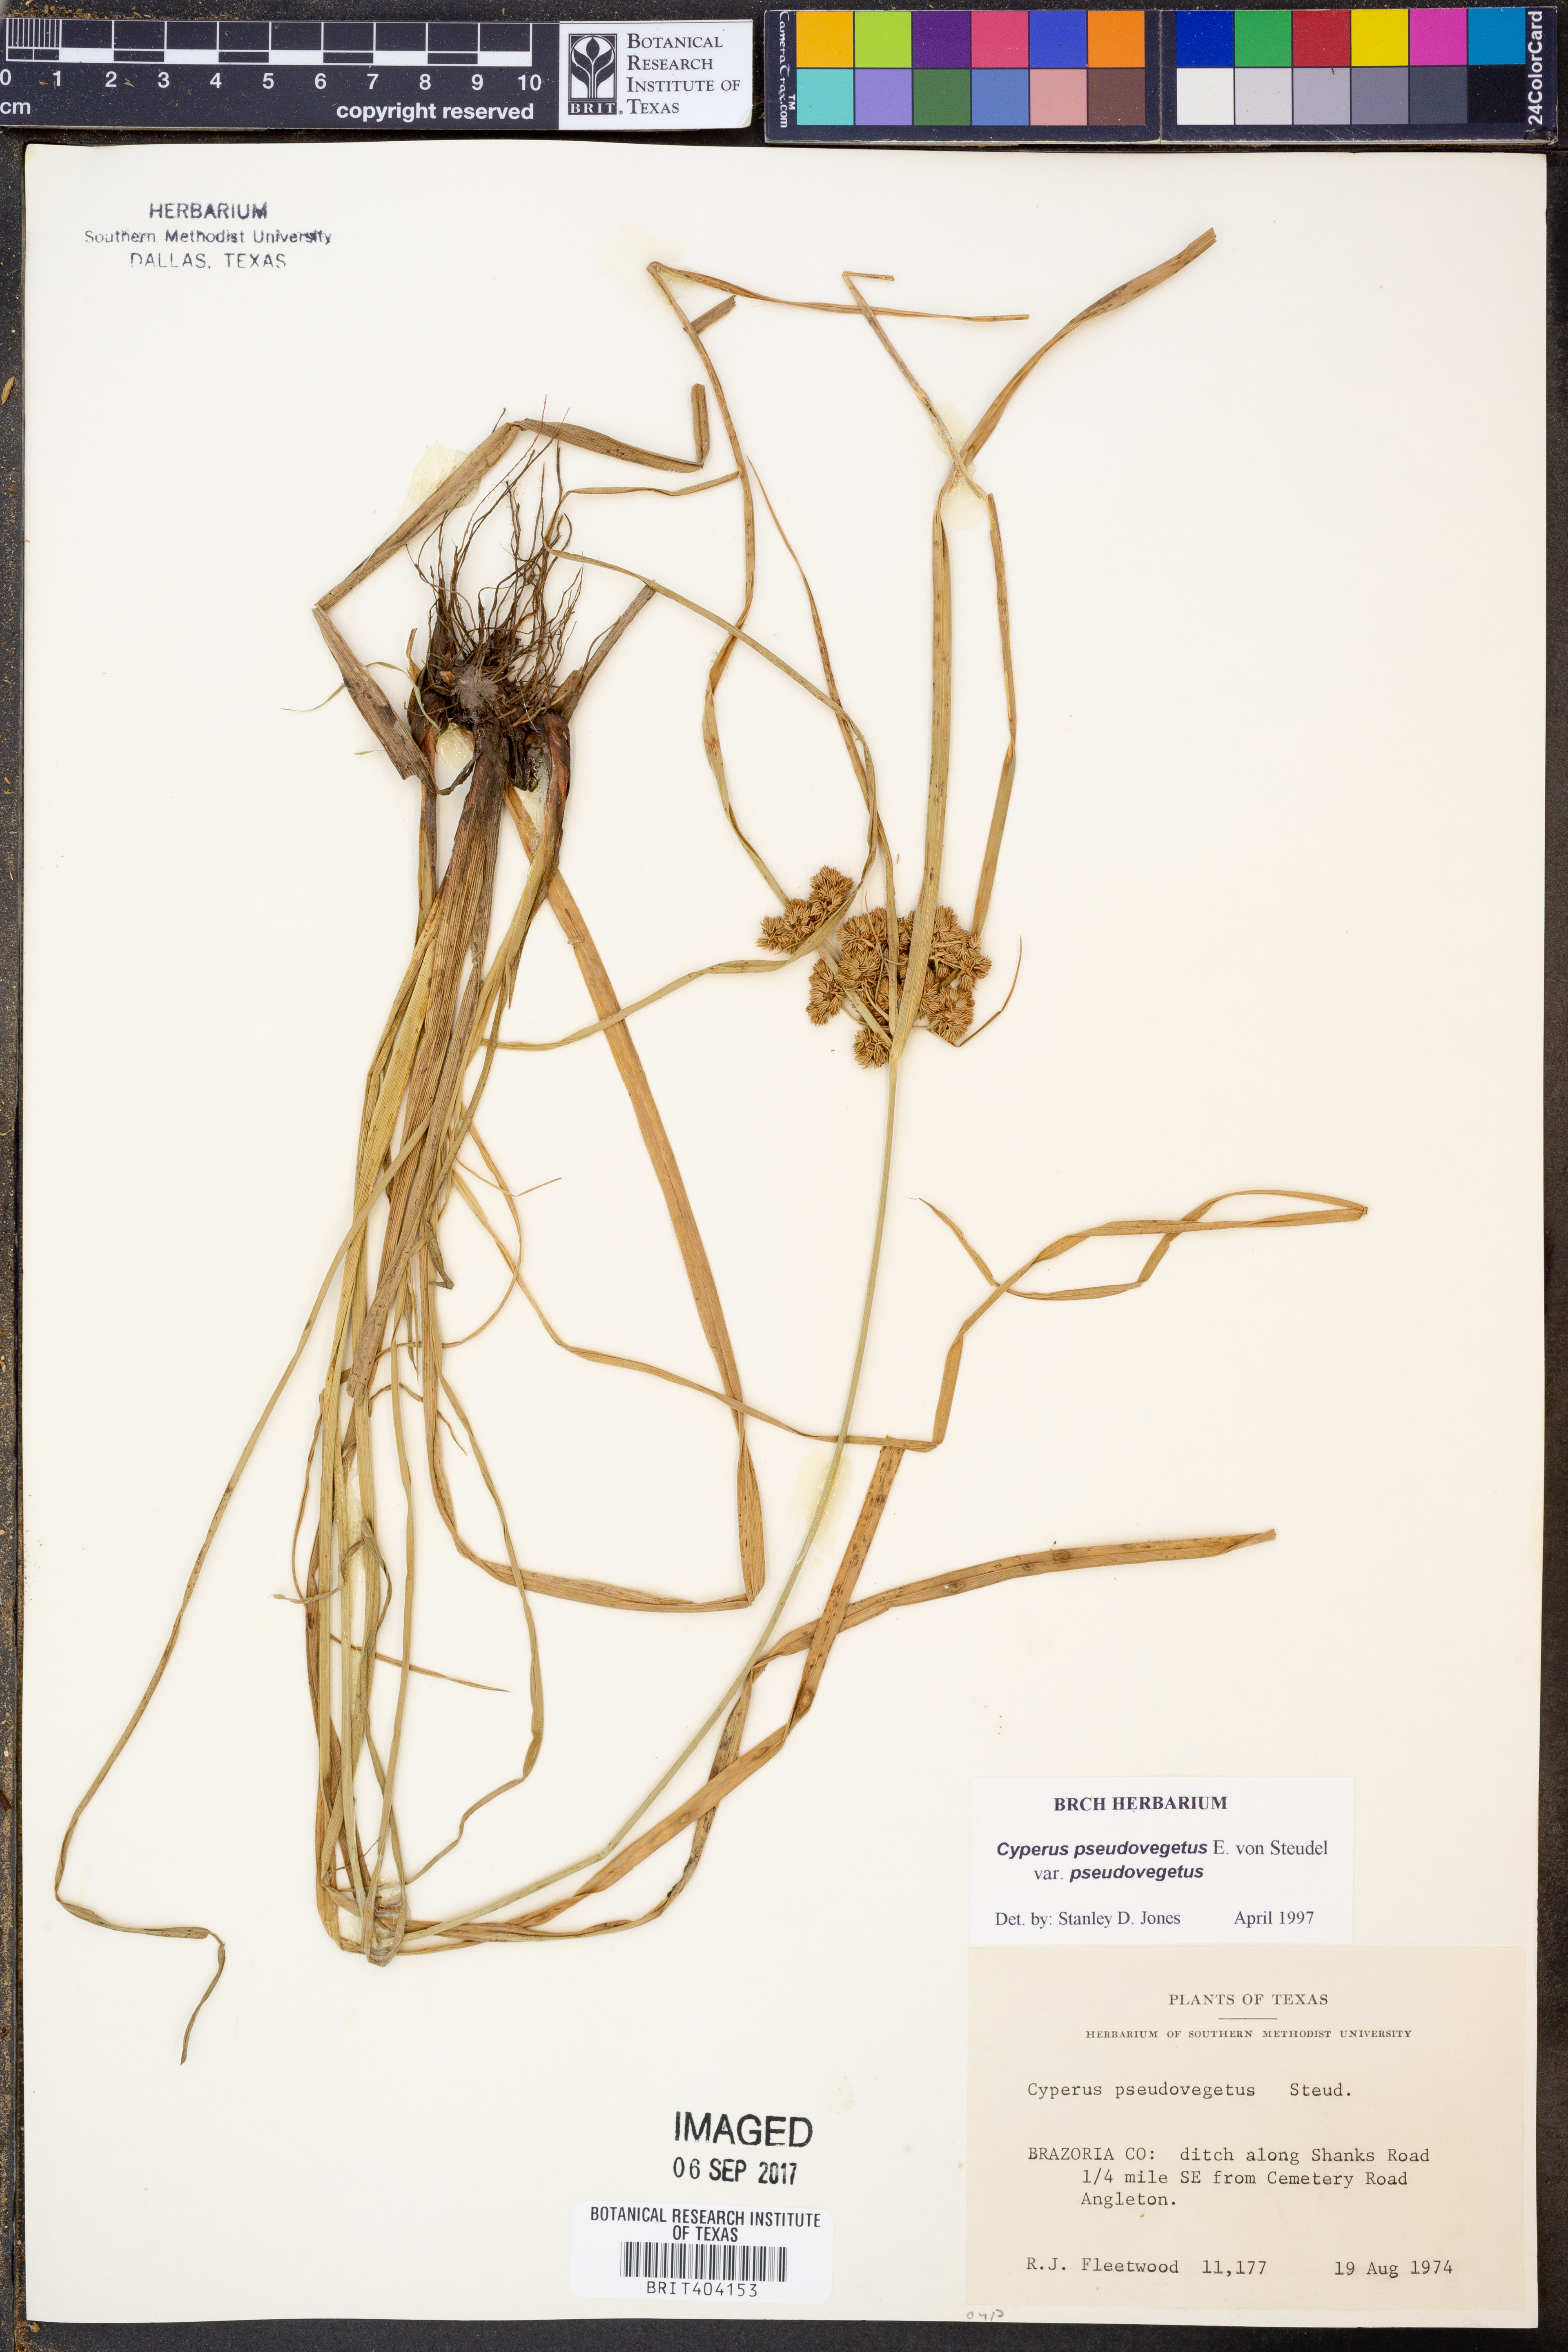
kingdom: Plantae
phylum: Tracheophyta
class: Liliopsida
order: Poales
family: Cyperaceae
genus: Cyperus
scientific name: Cyperus pseudovegetus
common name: Marsh flat sedge
